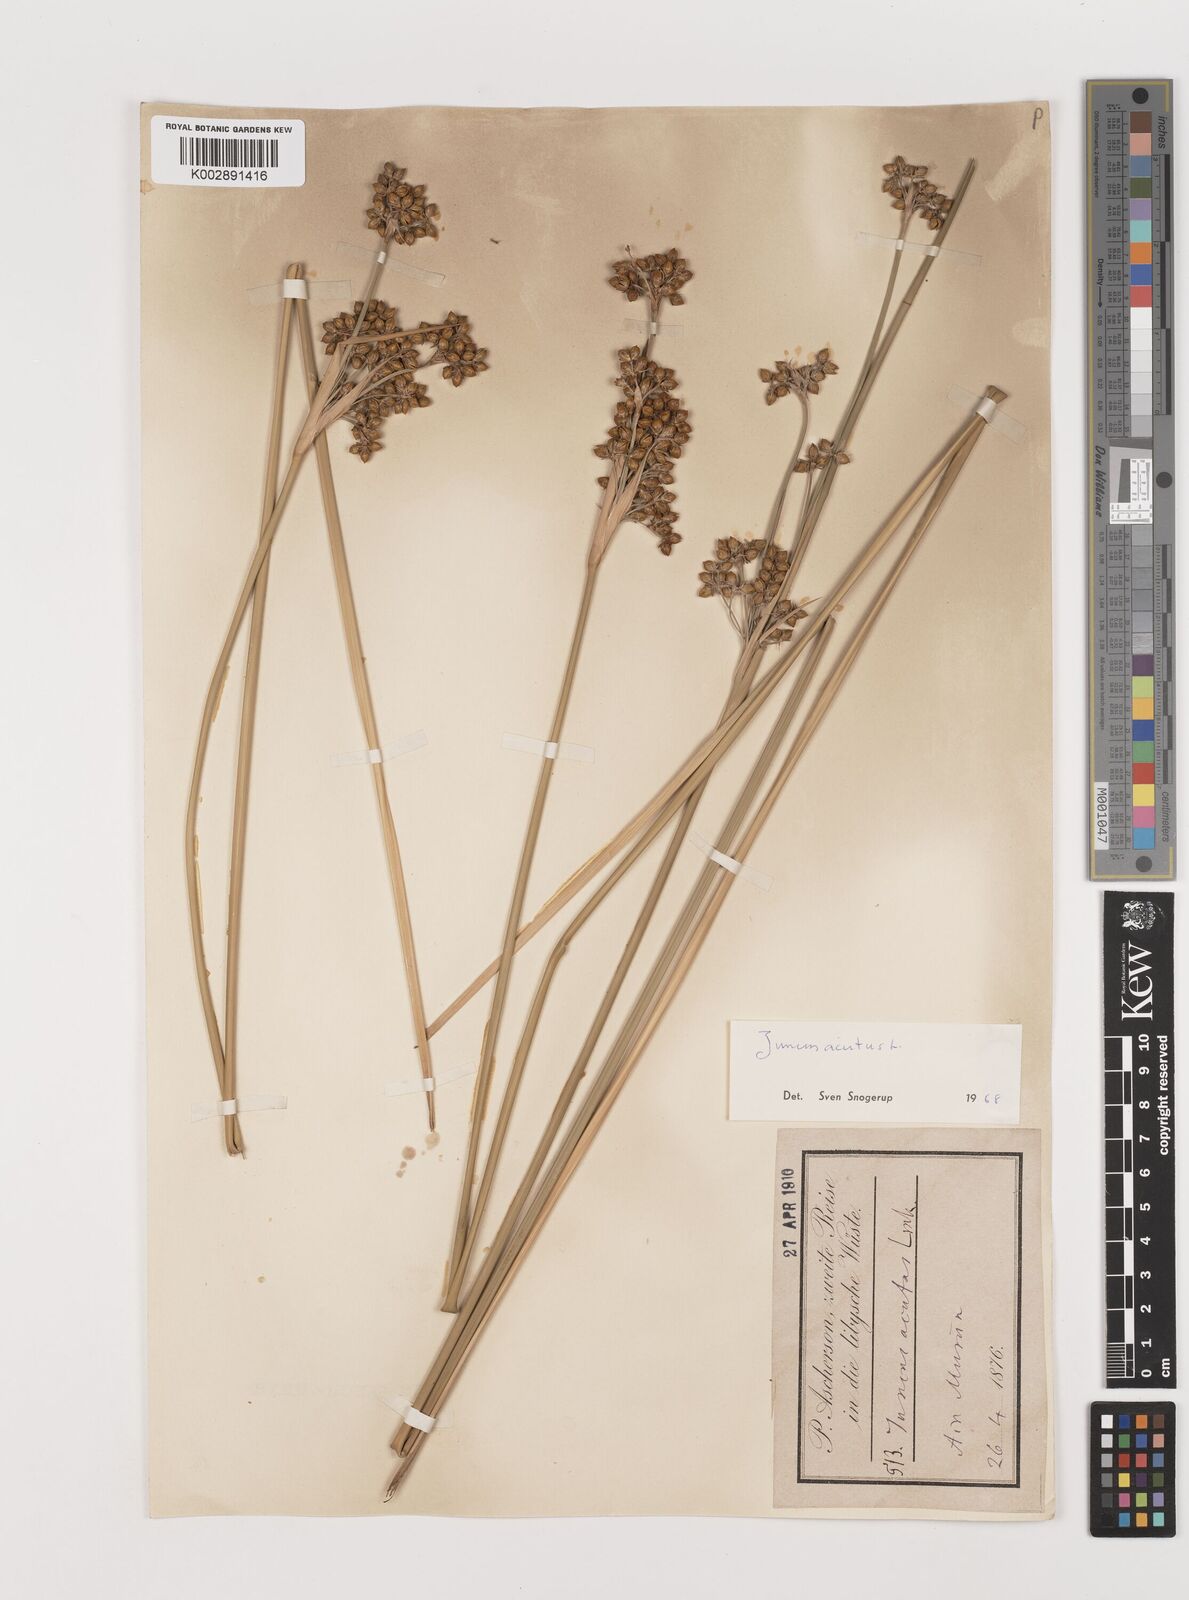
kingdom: Plantae
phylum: Tracheophyta
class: Liliopsida
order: Poales
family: Juncaceae
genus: Juncus
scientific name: Juncus acutus
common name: Sharp rush
